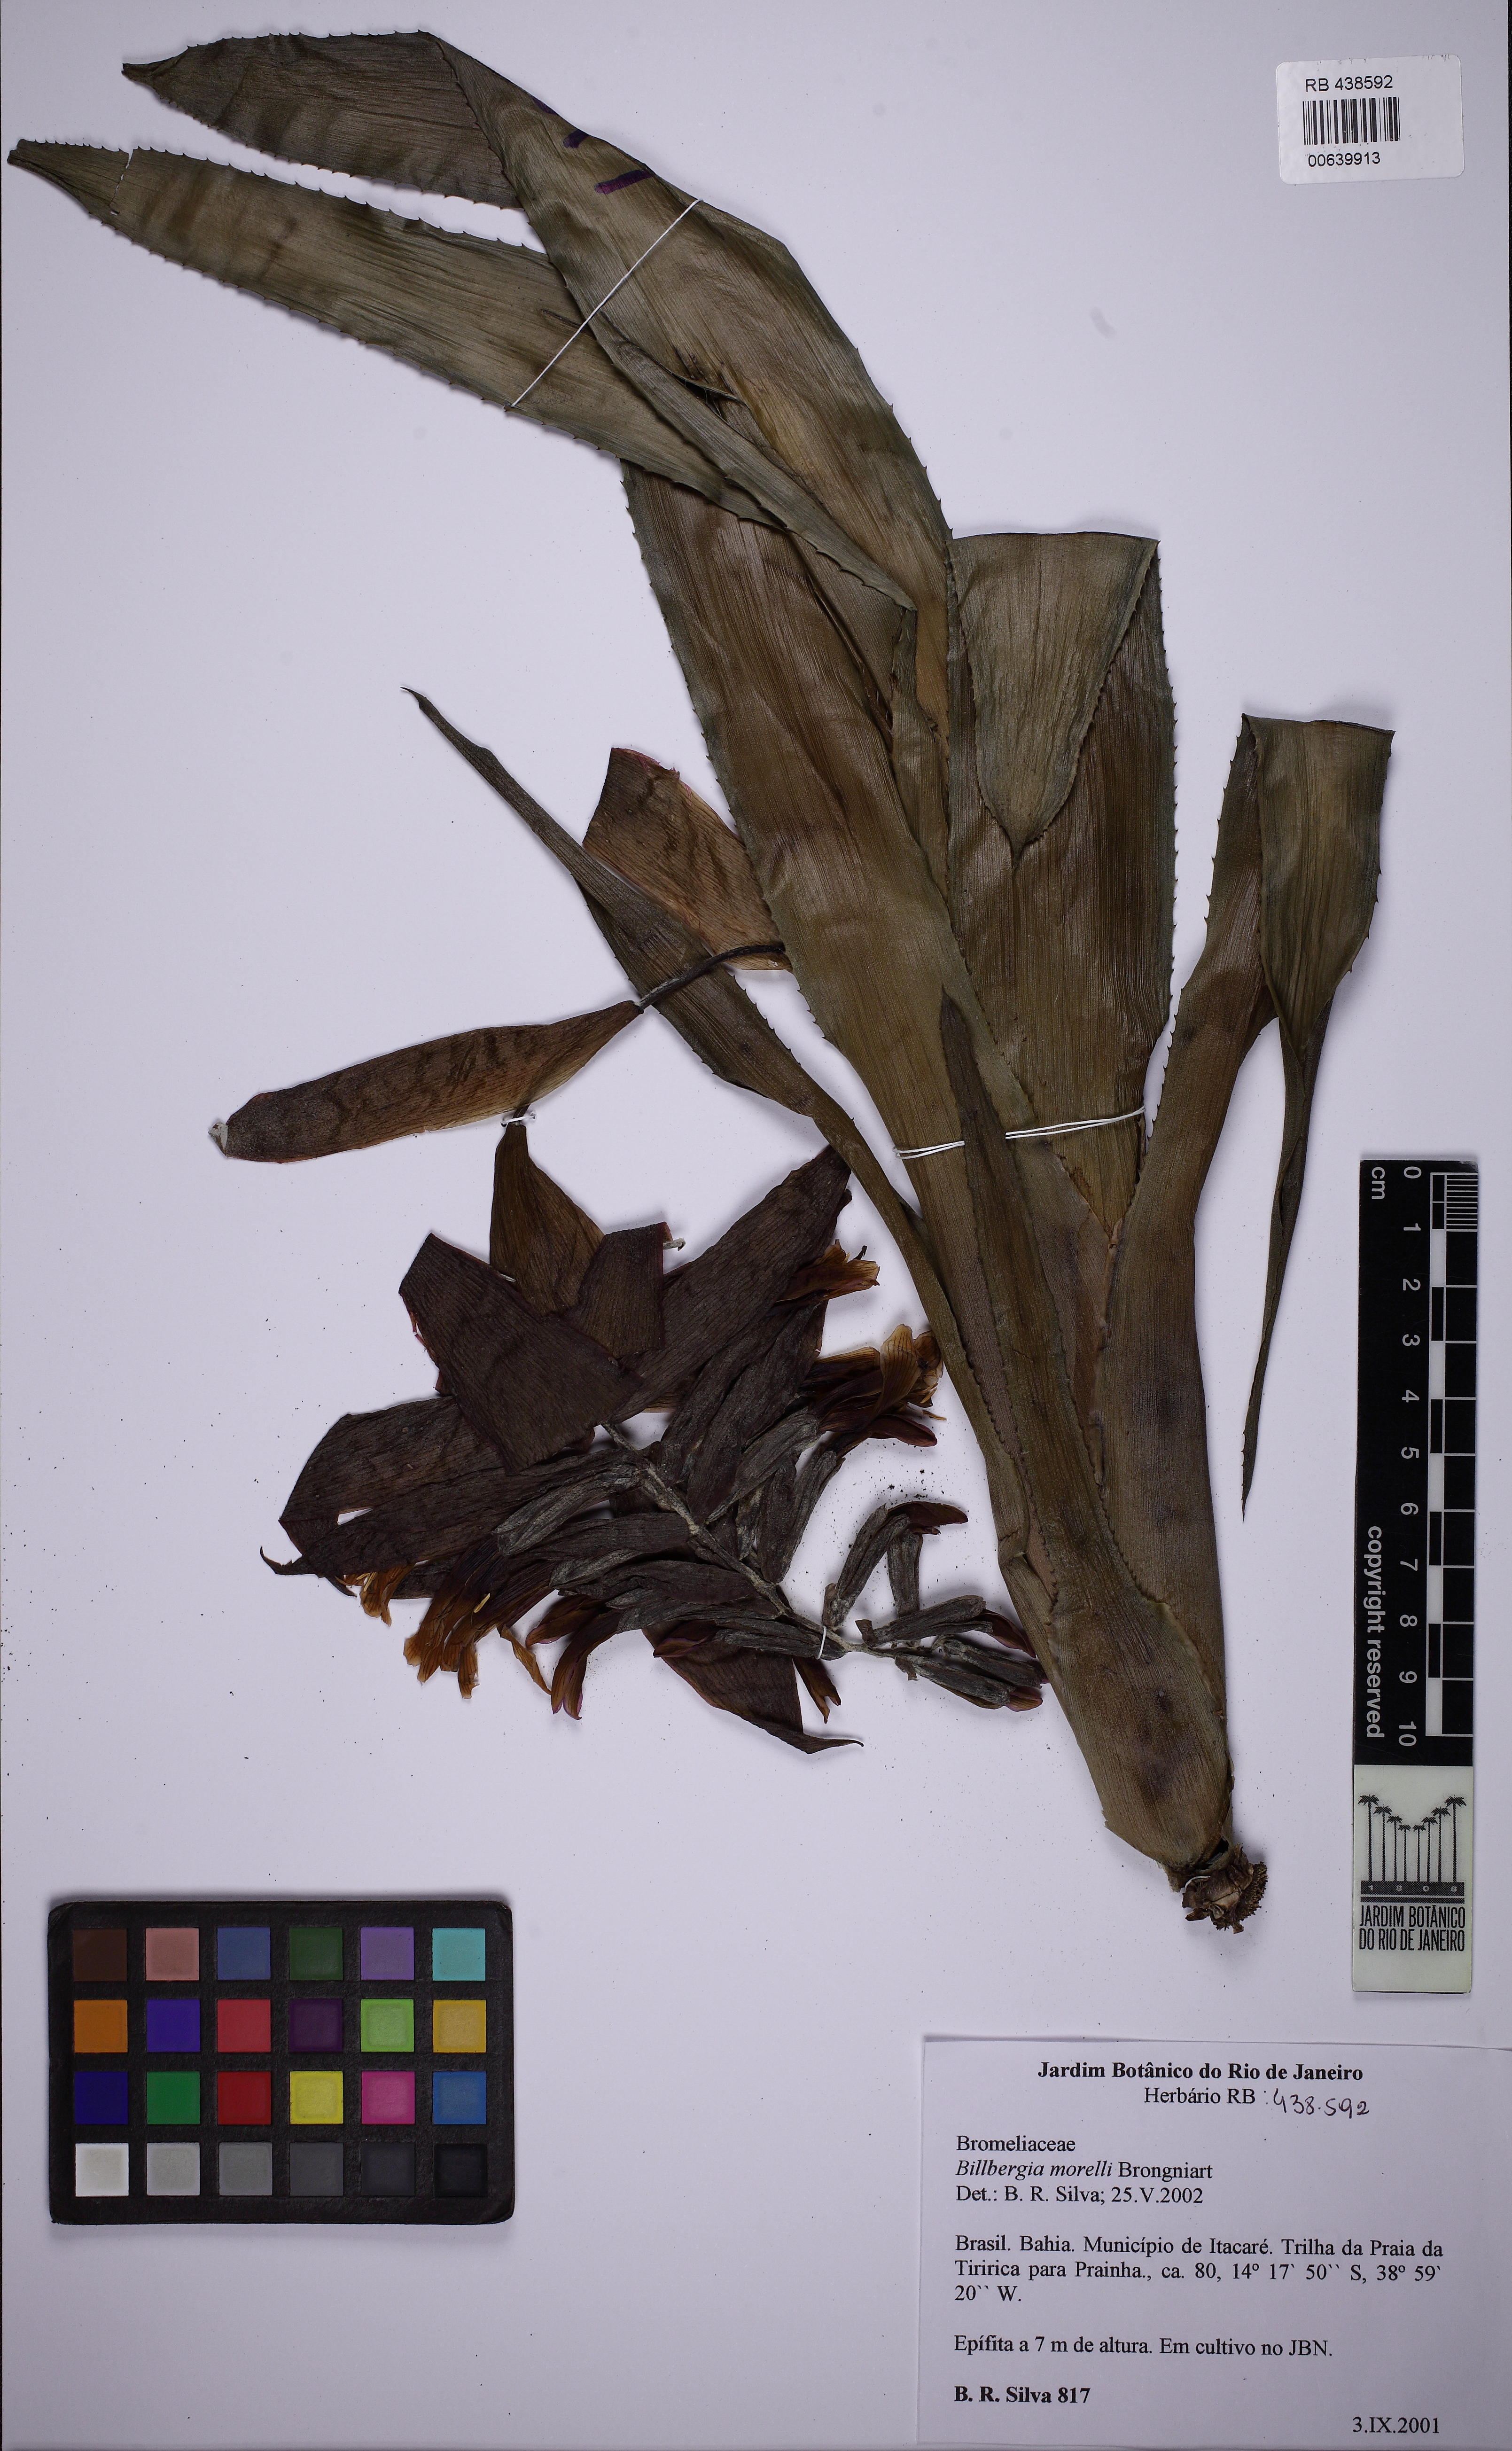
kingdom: Plantae
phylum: Tracheophyta
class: Liliopsida
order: Poales
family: Bromeliaceae
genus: Billbergia
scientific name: Billbergia morelii
